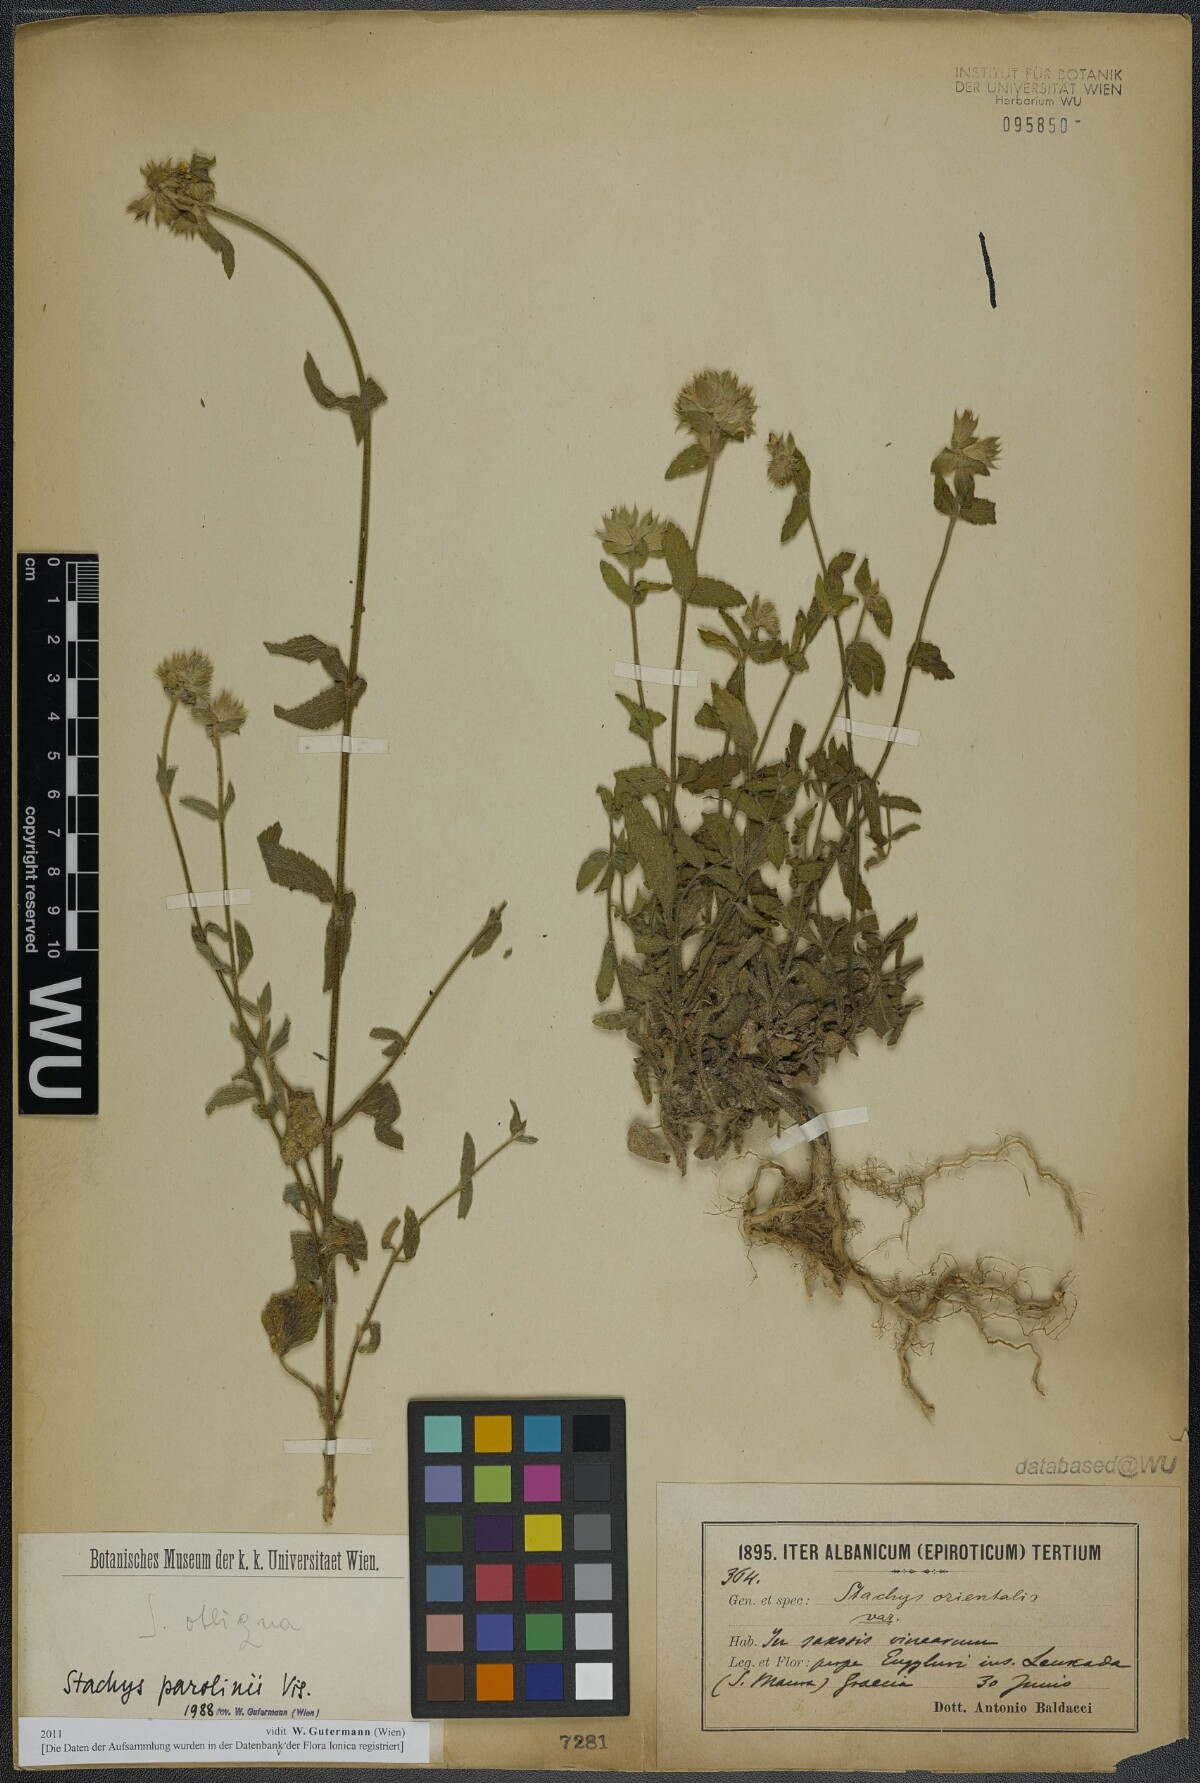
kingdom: Plantae
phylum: Tracheophyta
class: Magnoliopsida
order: Lamiales
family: Lamiaceae
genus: Stachys
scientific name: Stachys parolinii
